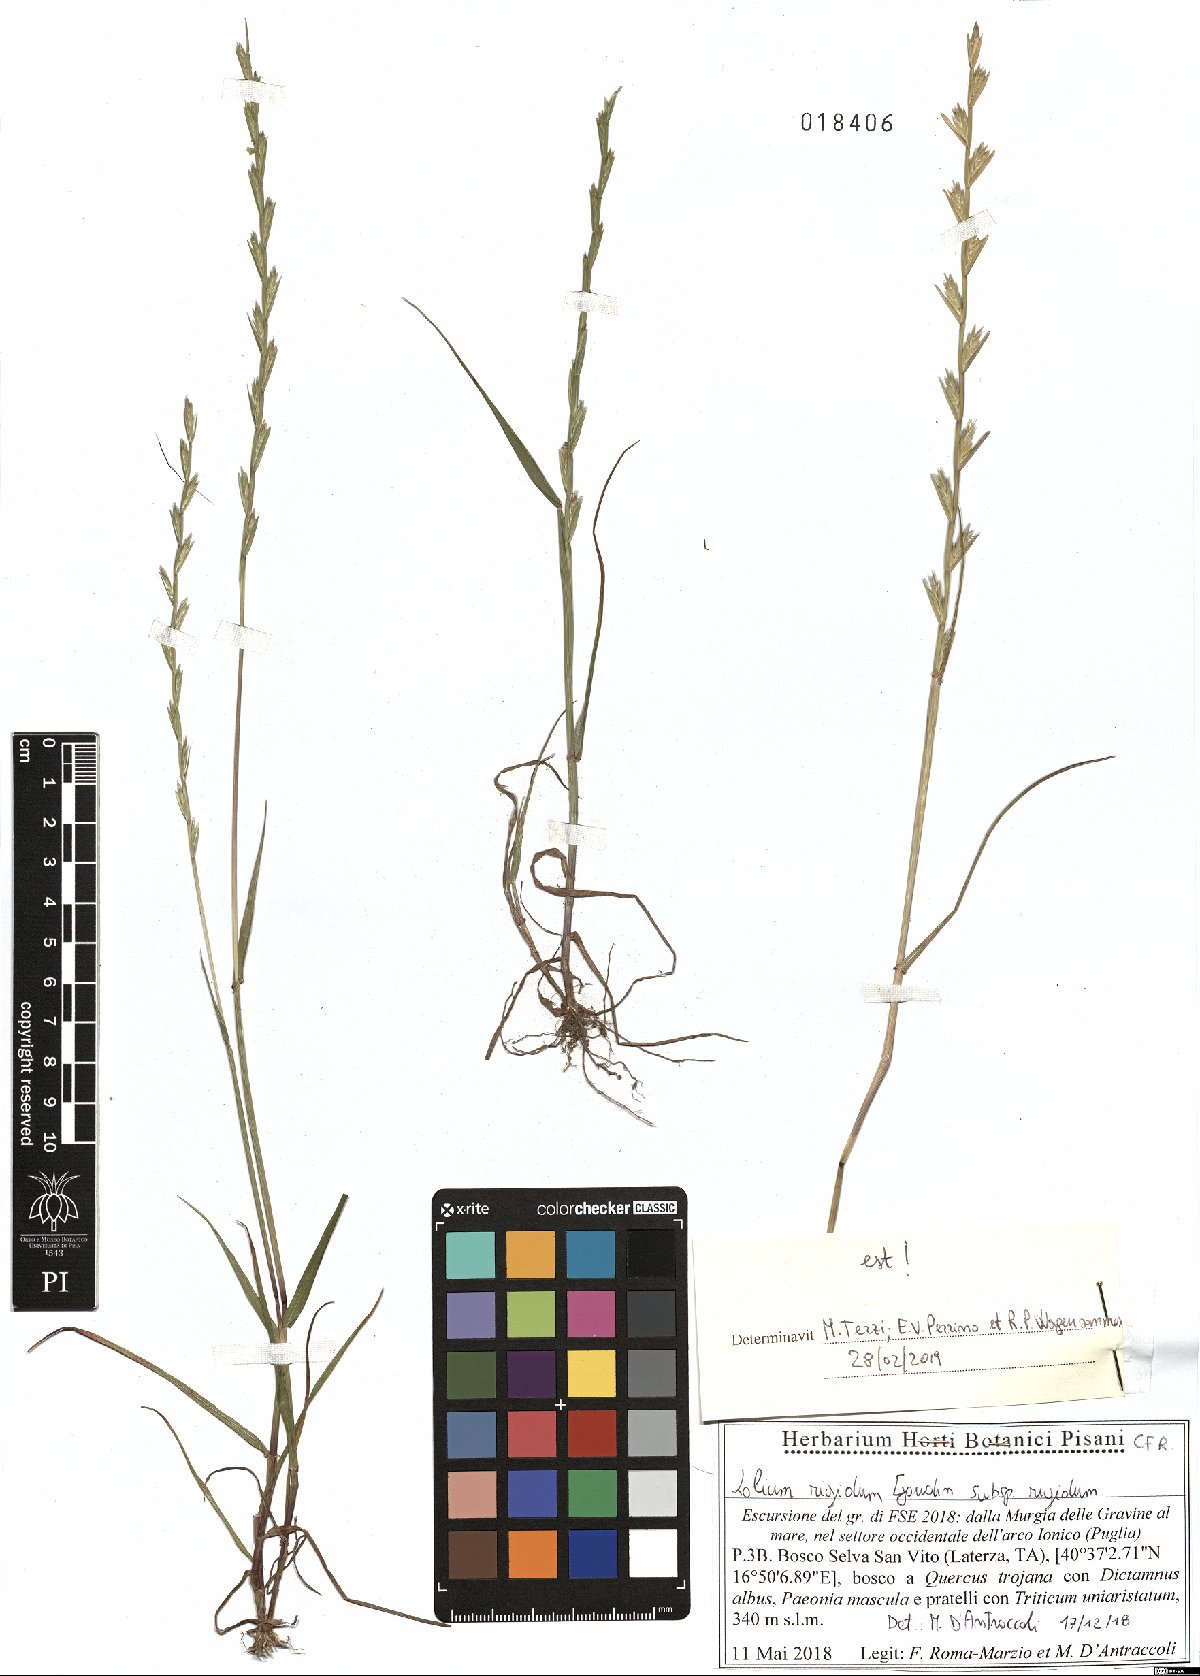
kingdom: Plantae
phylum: Tracheophyta
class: Liliopsida
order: Poales
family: Poaceae
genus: Lolium
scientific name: Lolium rigidum
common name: Wimmera ryegrass
